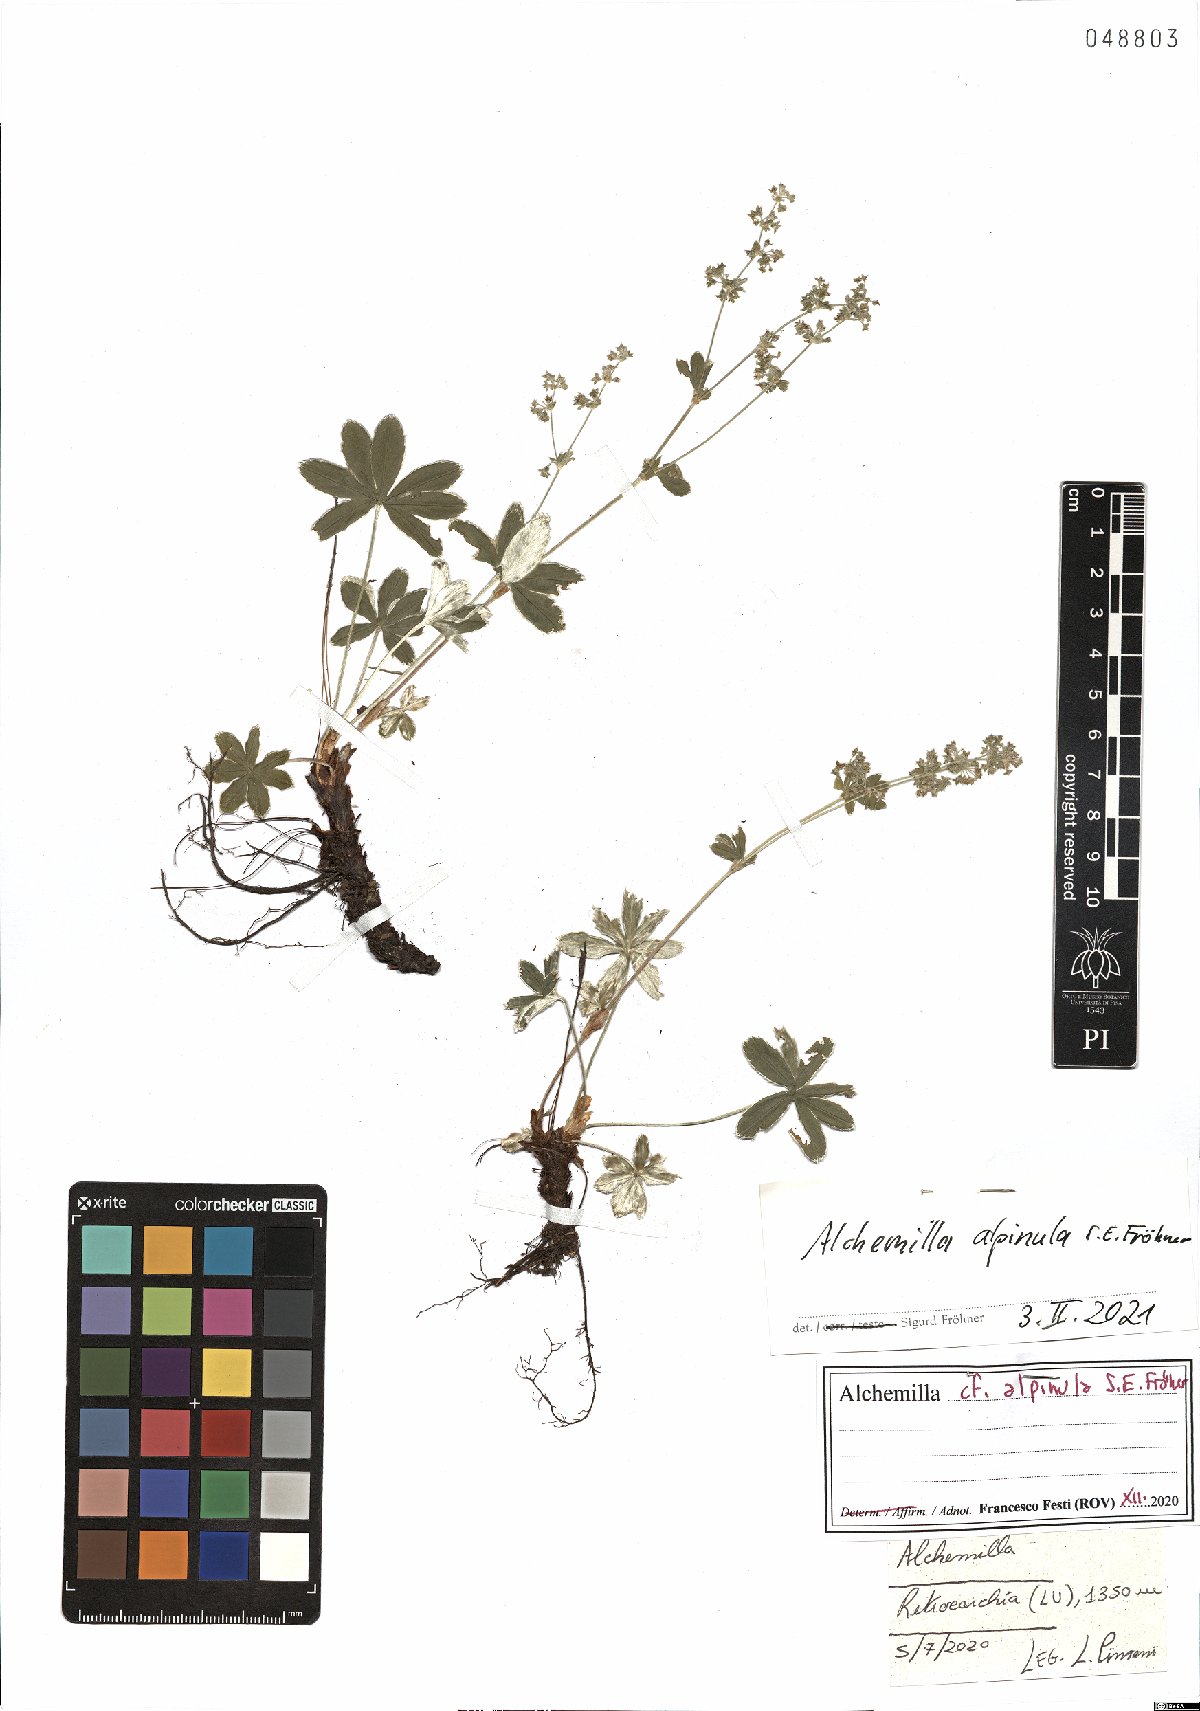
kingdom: Plantae
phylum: Tracheophyta
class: Magnoliopsida
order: Rosales
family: Rosaceae
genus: Alchemilla
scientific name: Alchemilla alpinula
